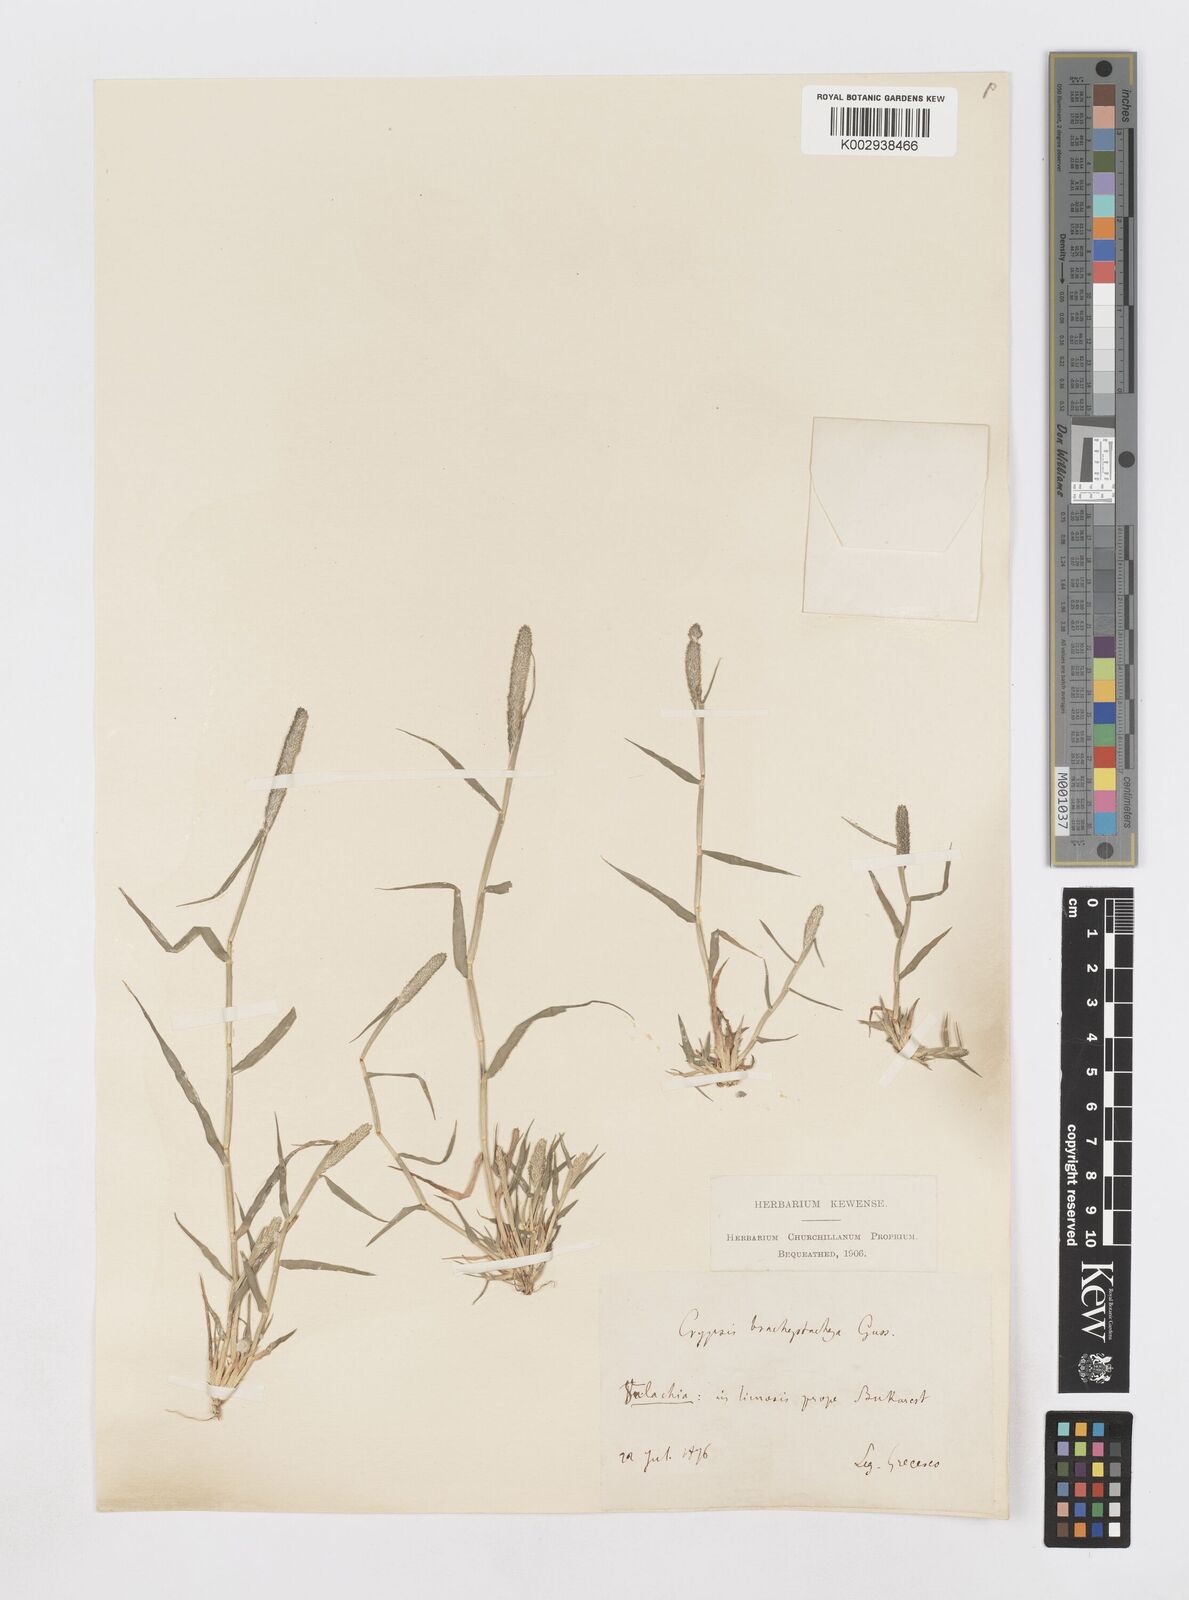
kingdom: Plantae
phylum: Tracheophyta
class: Liliopsida
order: Poales
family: Poaceae
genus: Sporobolus
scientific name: Sporobolus alopecuroides
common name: Foxtail pricklegrass
